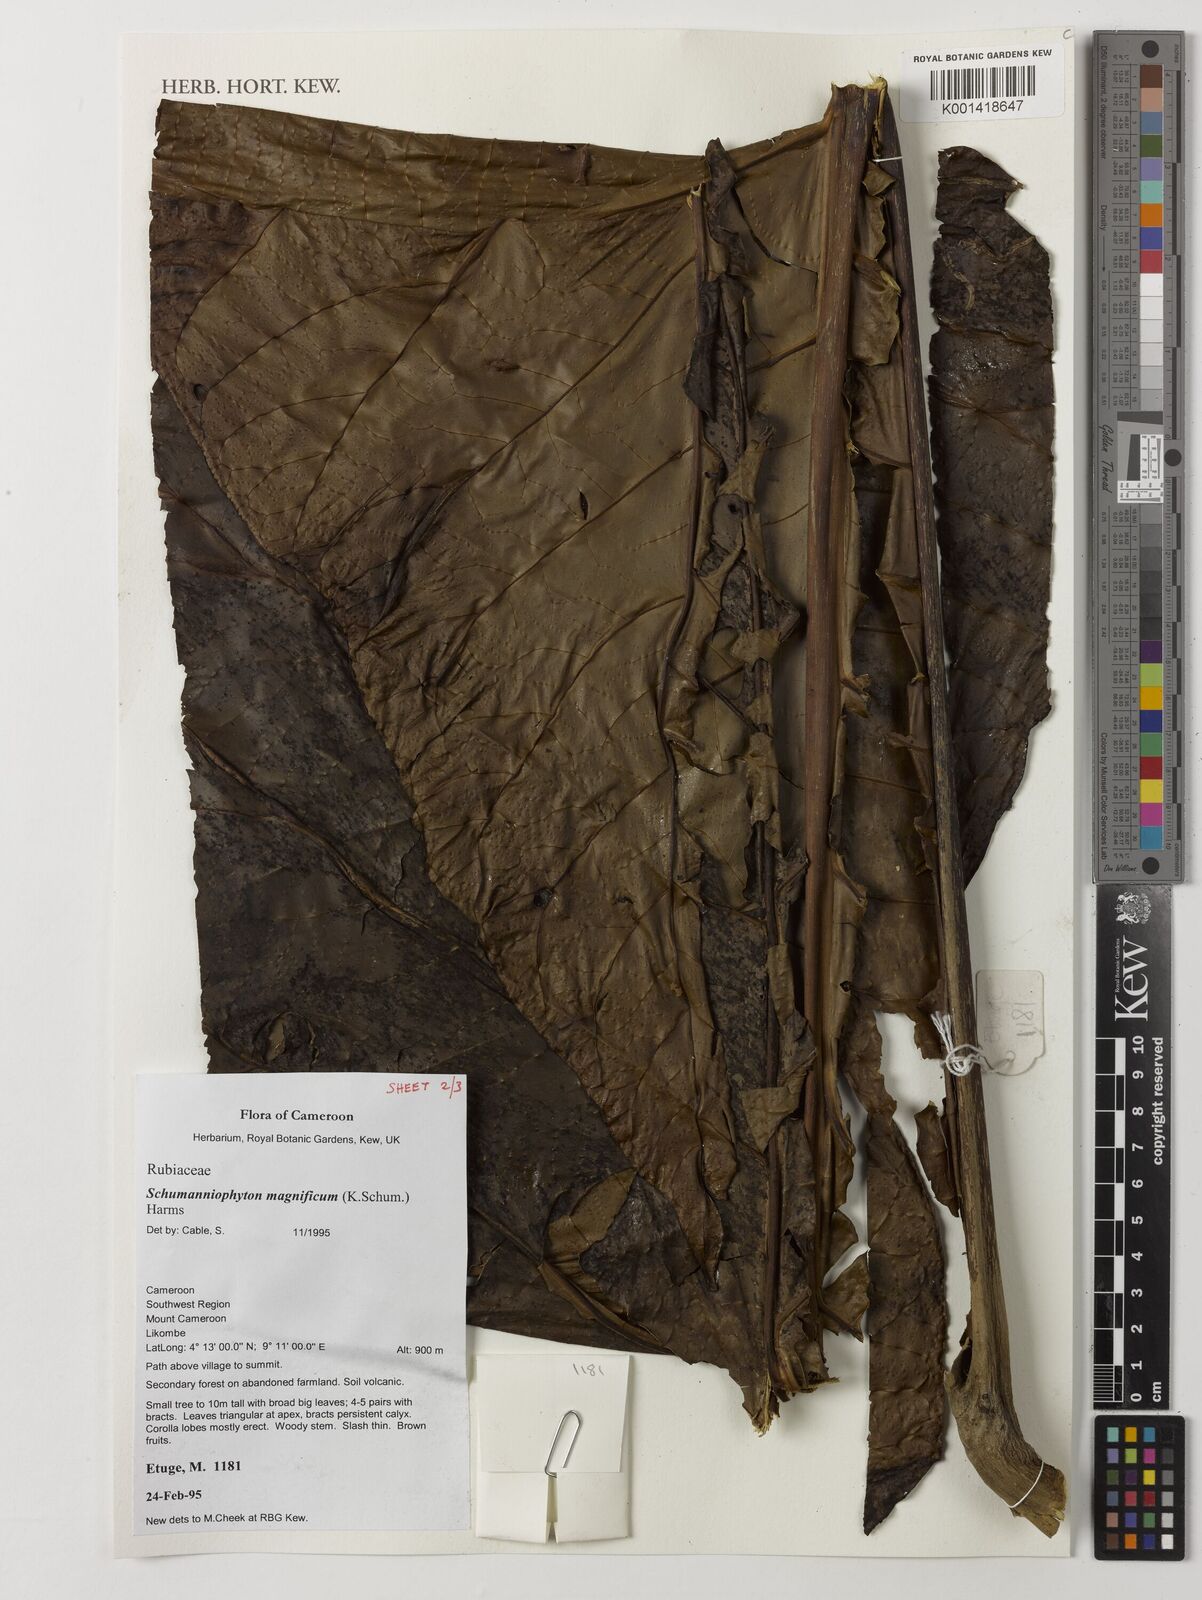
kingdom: Plantae
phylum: Tracheophyta
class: Magnoliopsida
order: Gentianales
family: Rubiaceae
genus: Schumanniophyton
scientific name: Schumanniophyton magnificum
